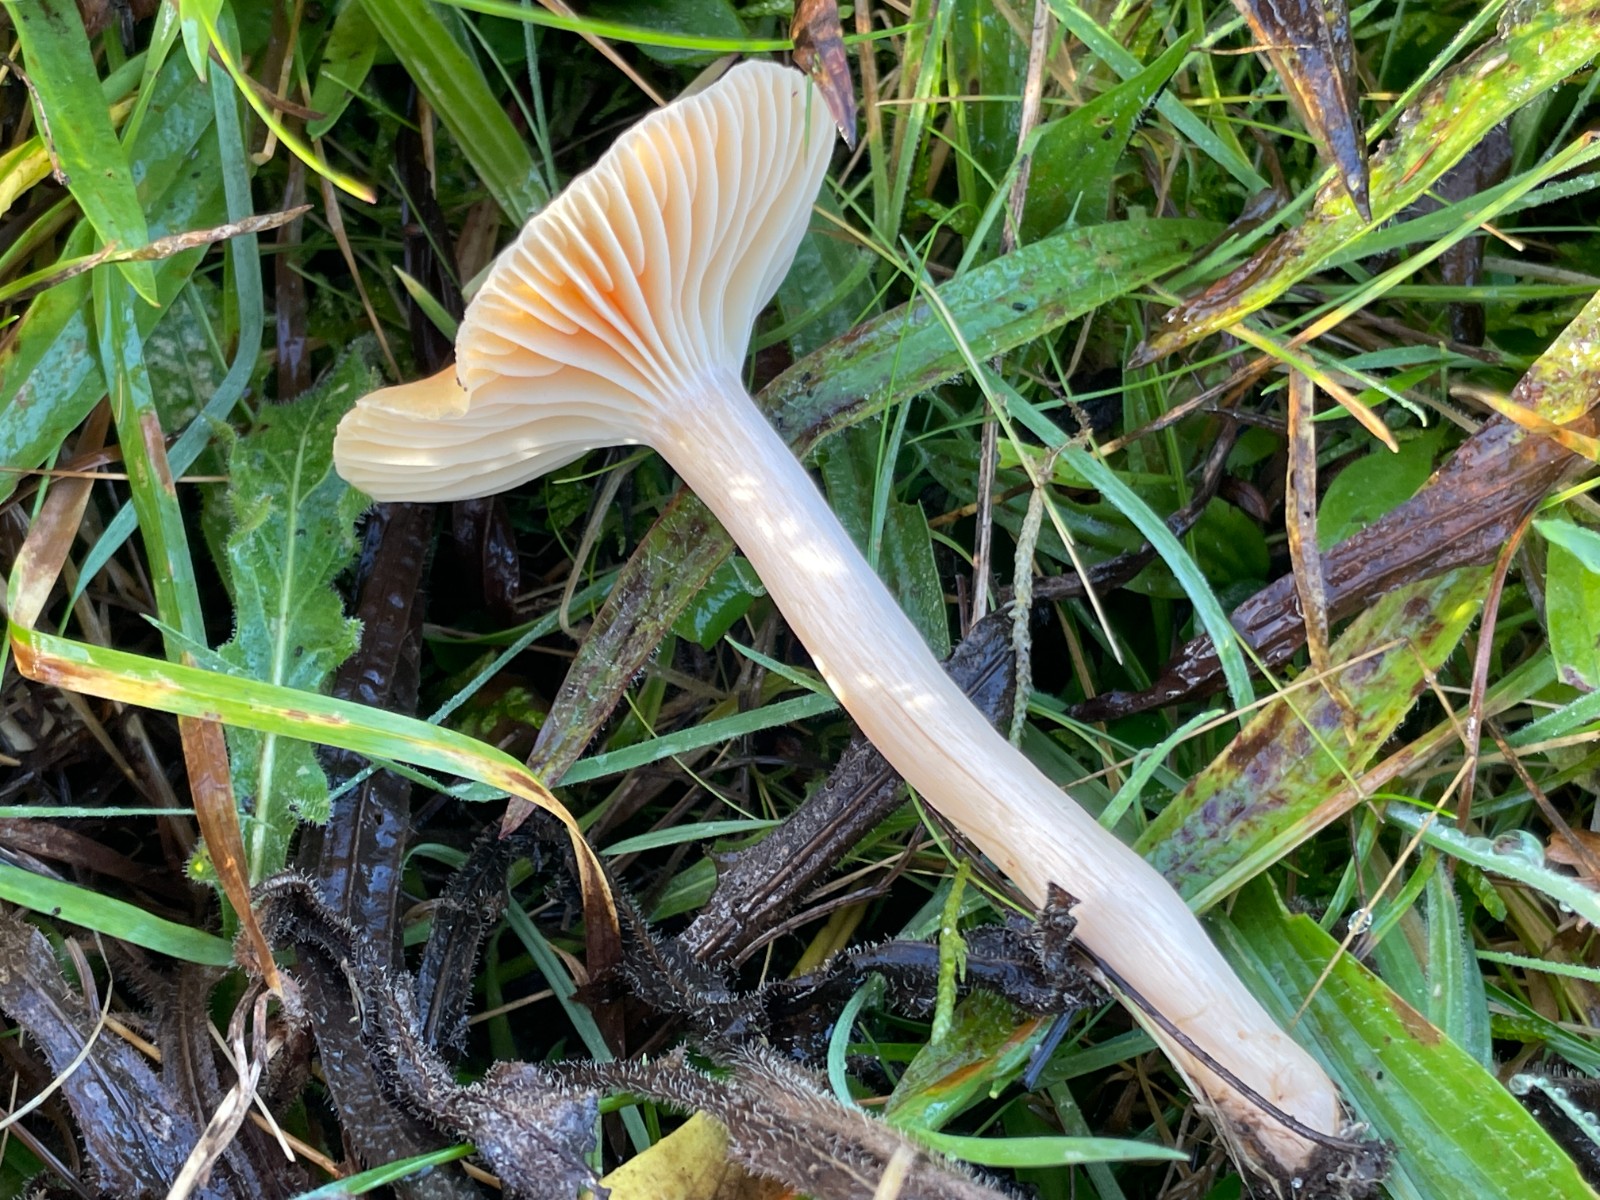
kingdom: Fungi
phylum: Basidiomycota
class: Agaricomycetes
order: Agaricales
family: Hygrophoraceae
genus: Cuphophyllus
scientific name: Cuphophyllus pratensis
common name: eng-vokshat
